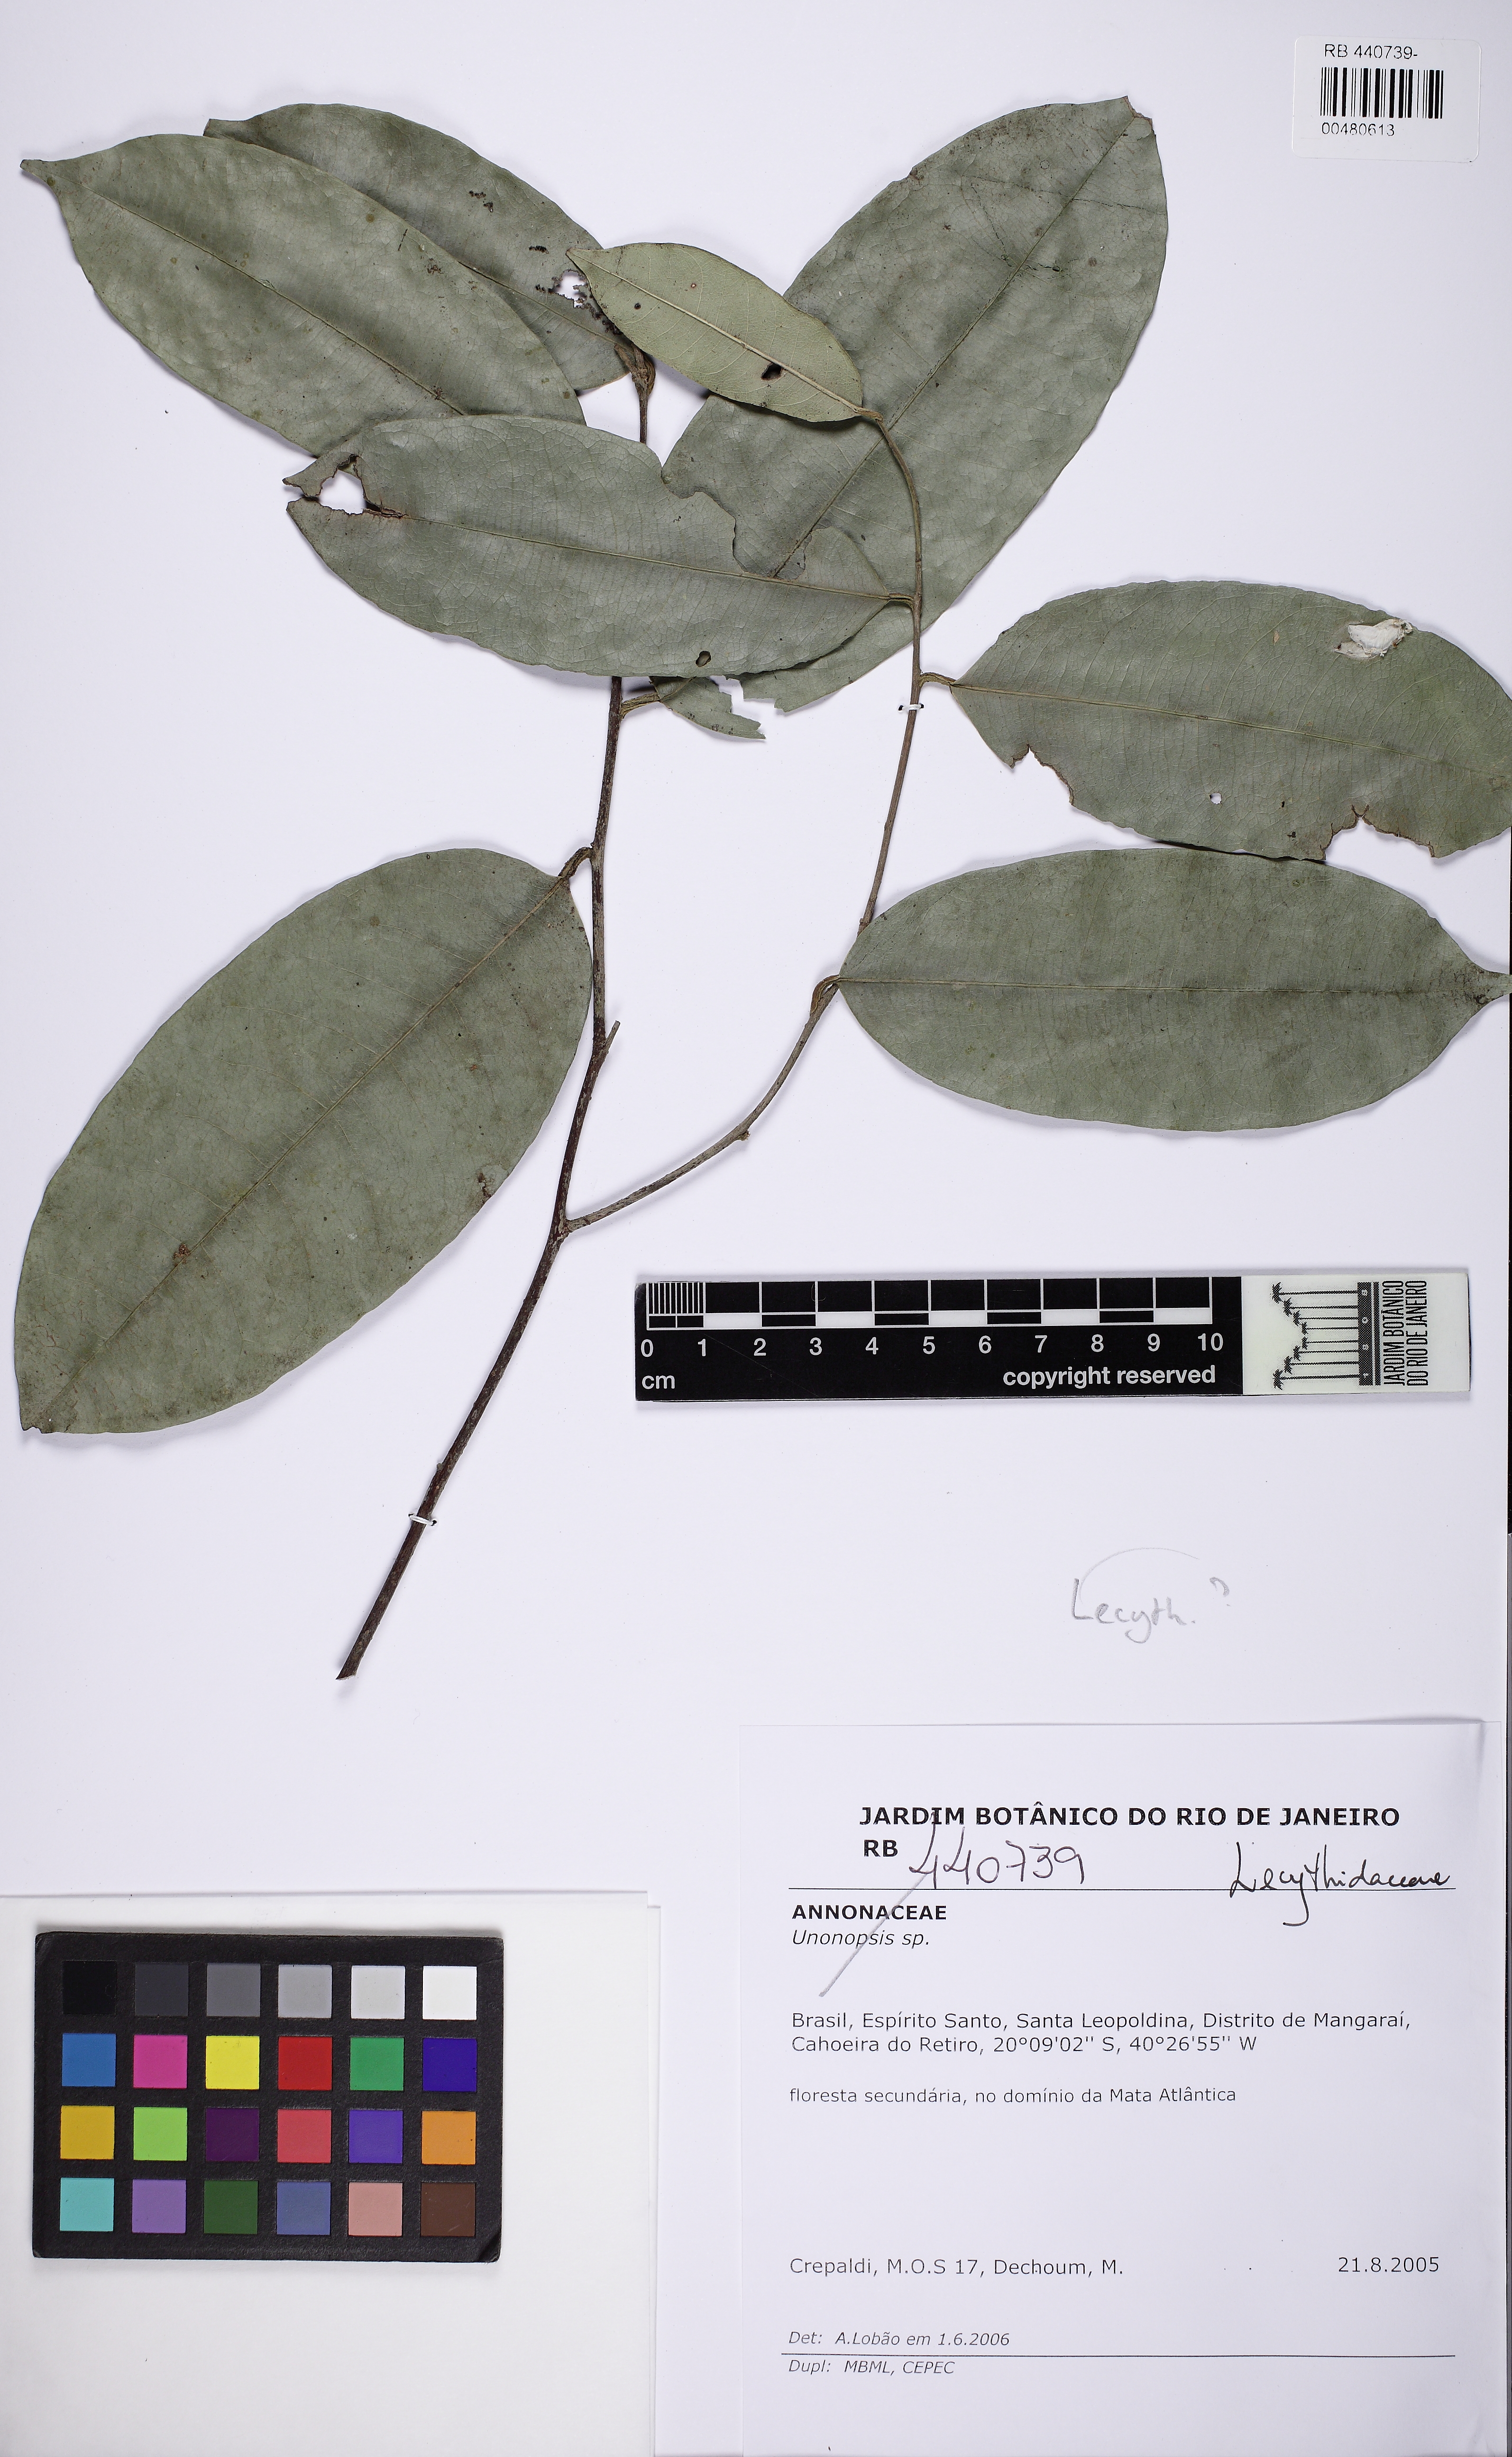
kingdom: Plantae
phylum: Tracheophyta
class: Magnoliopsida
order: Ericales
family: Lecythidaceae
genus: Eschweilera
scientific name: Eschweilera ovata
